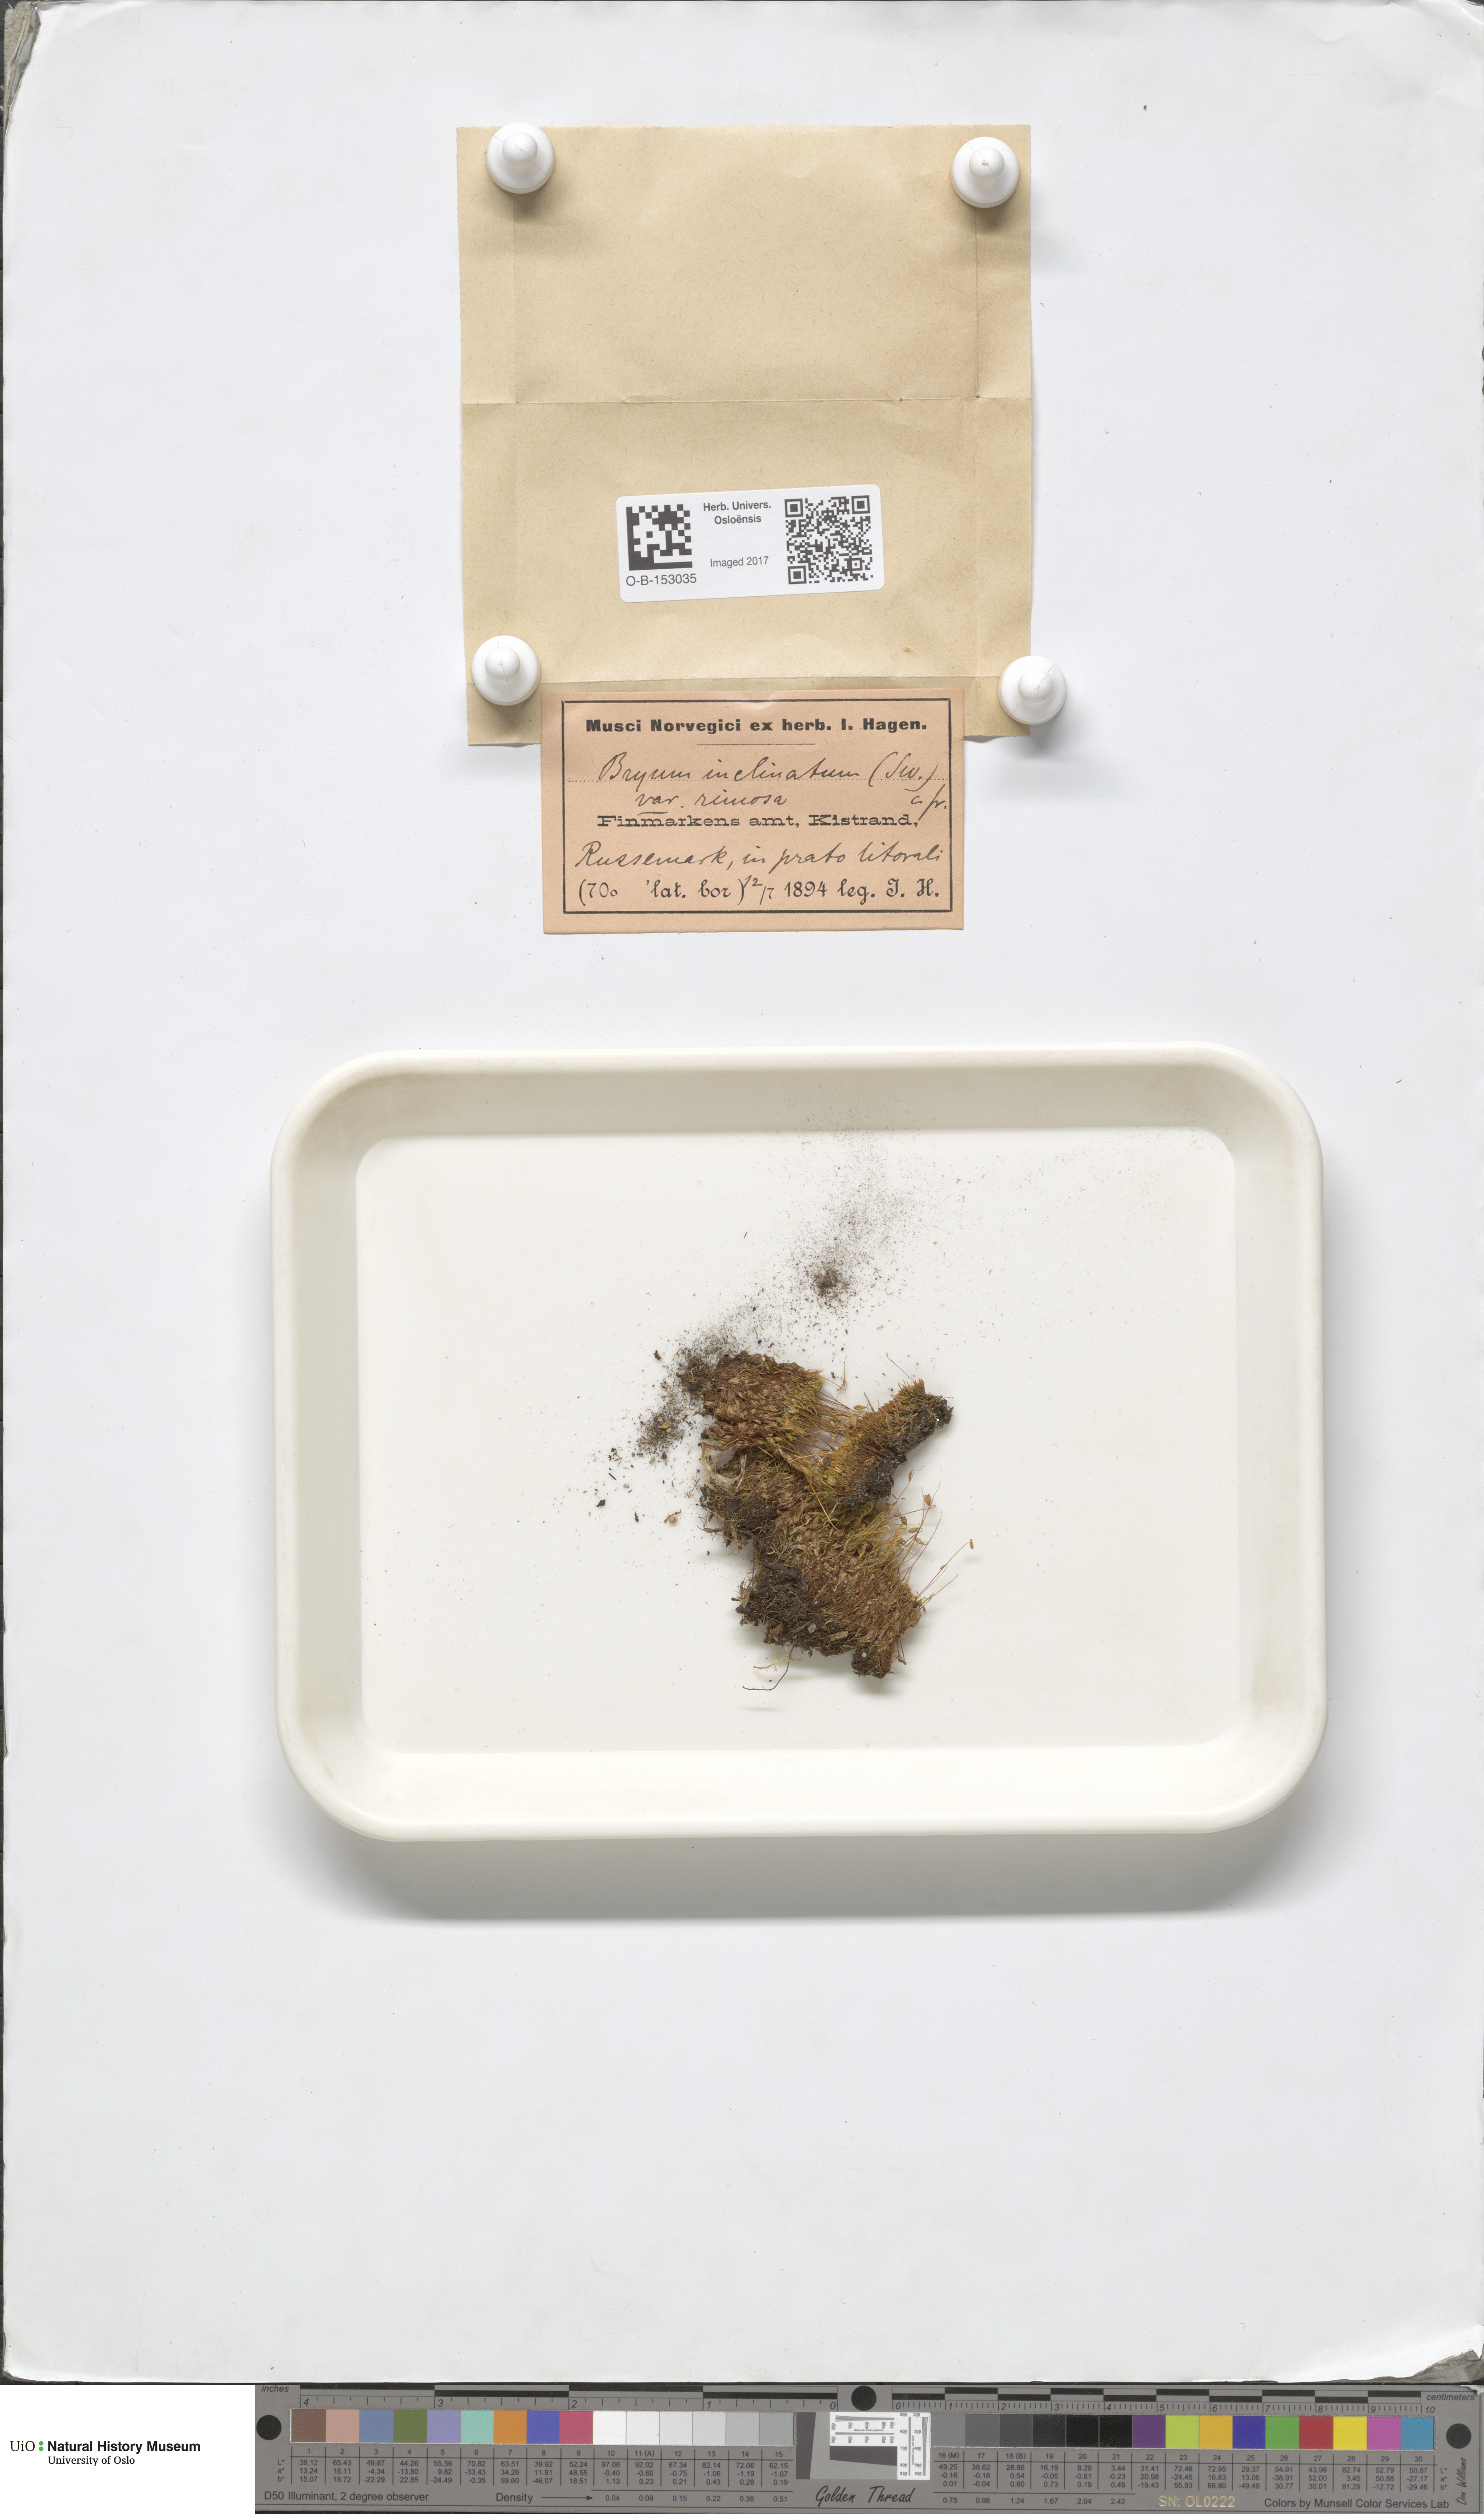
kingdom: Plantae
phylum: Bryophyta
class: Bryopsida
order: Bryales
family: Bryaceae
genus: Ptychostomum
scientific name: Ptychostomum inclinatum
